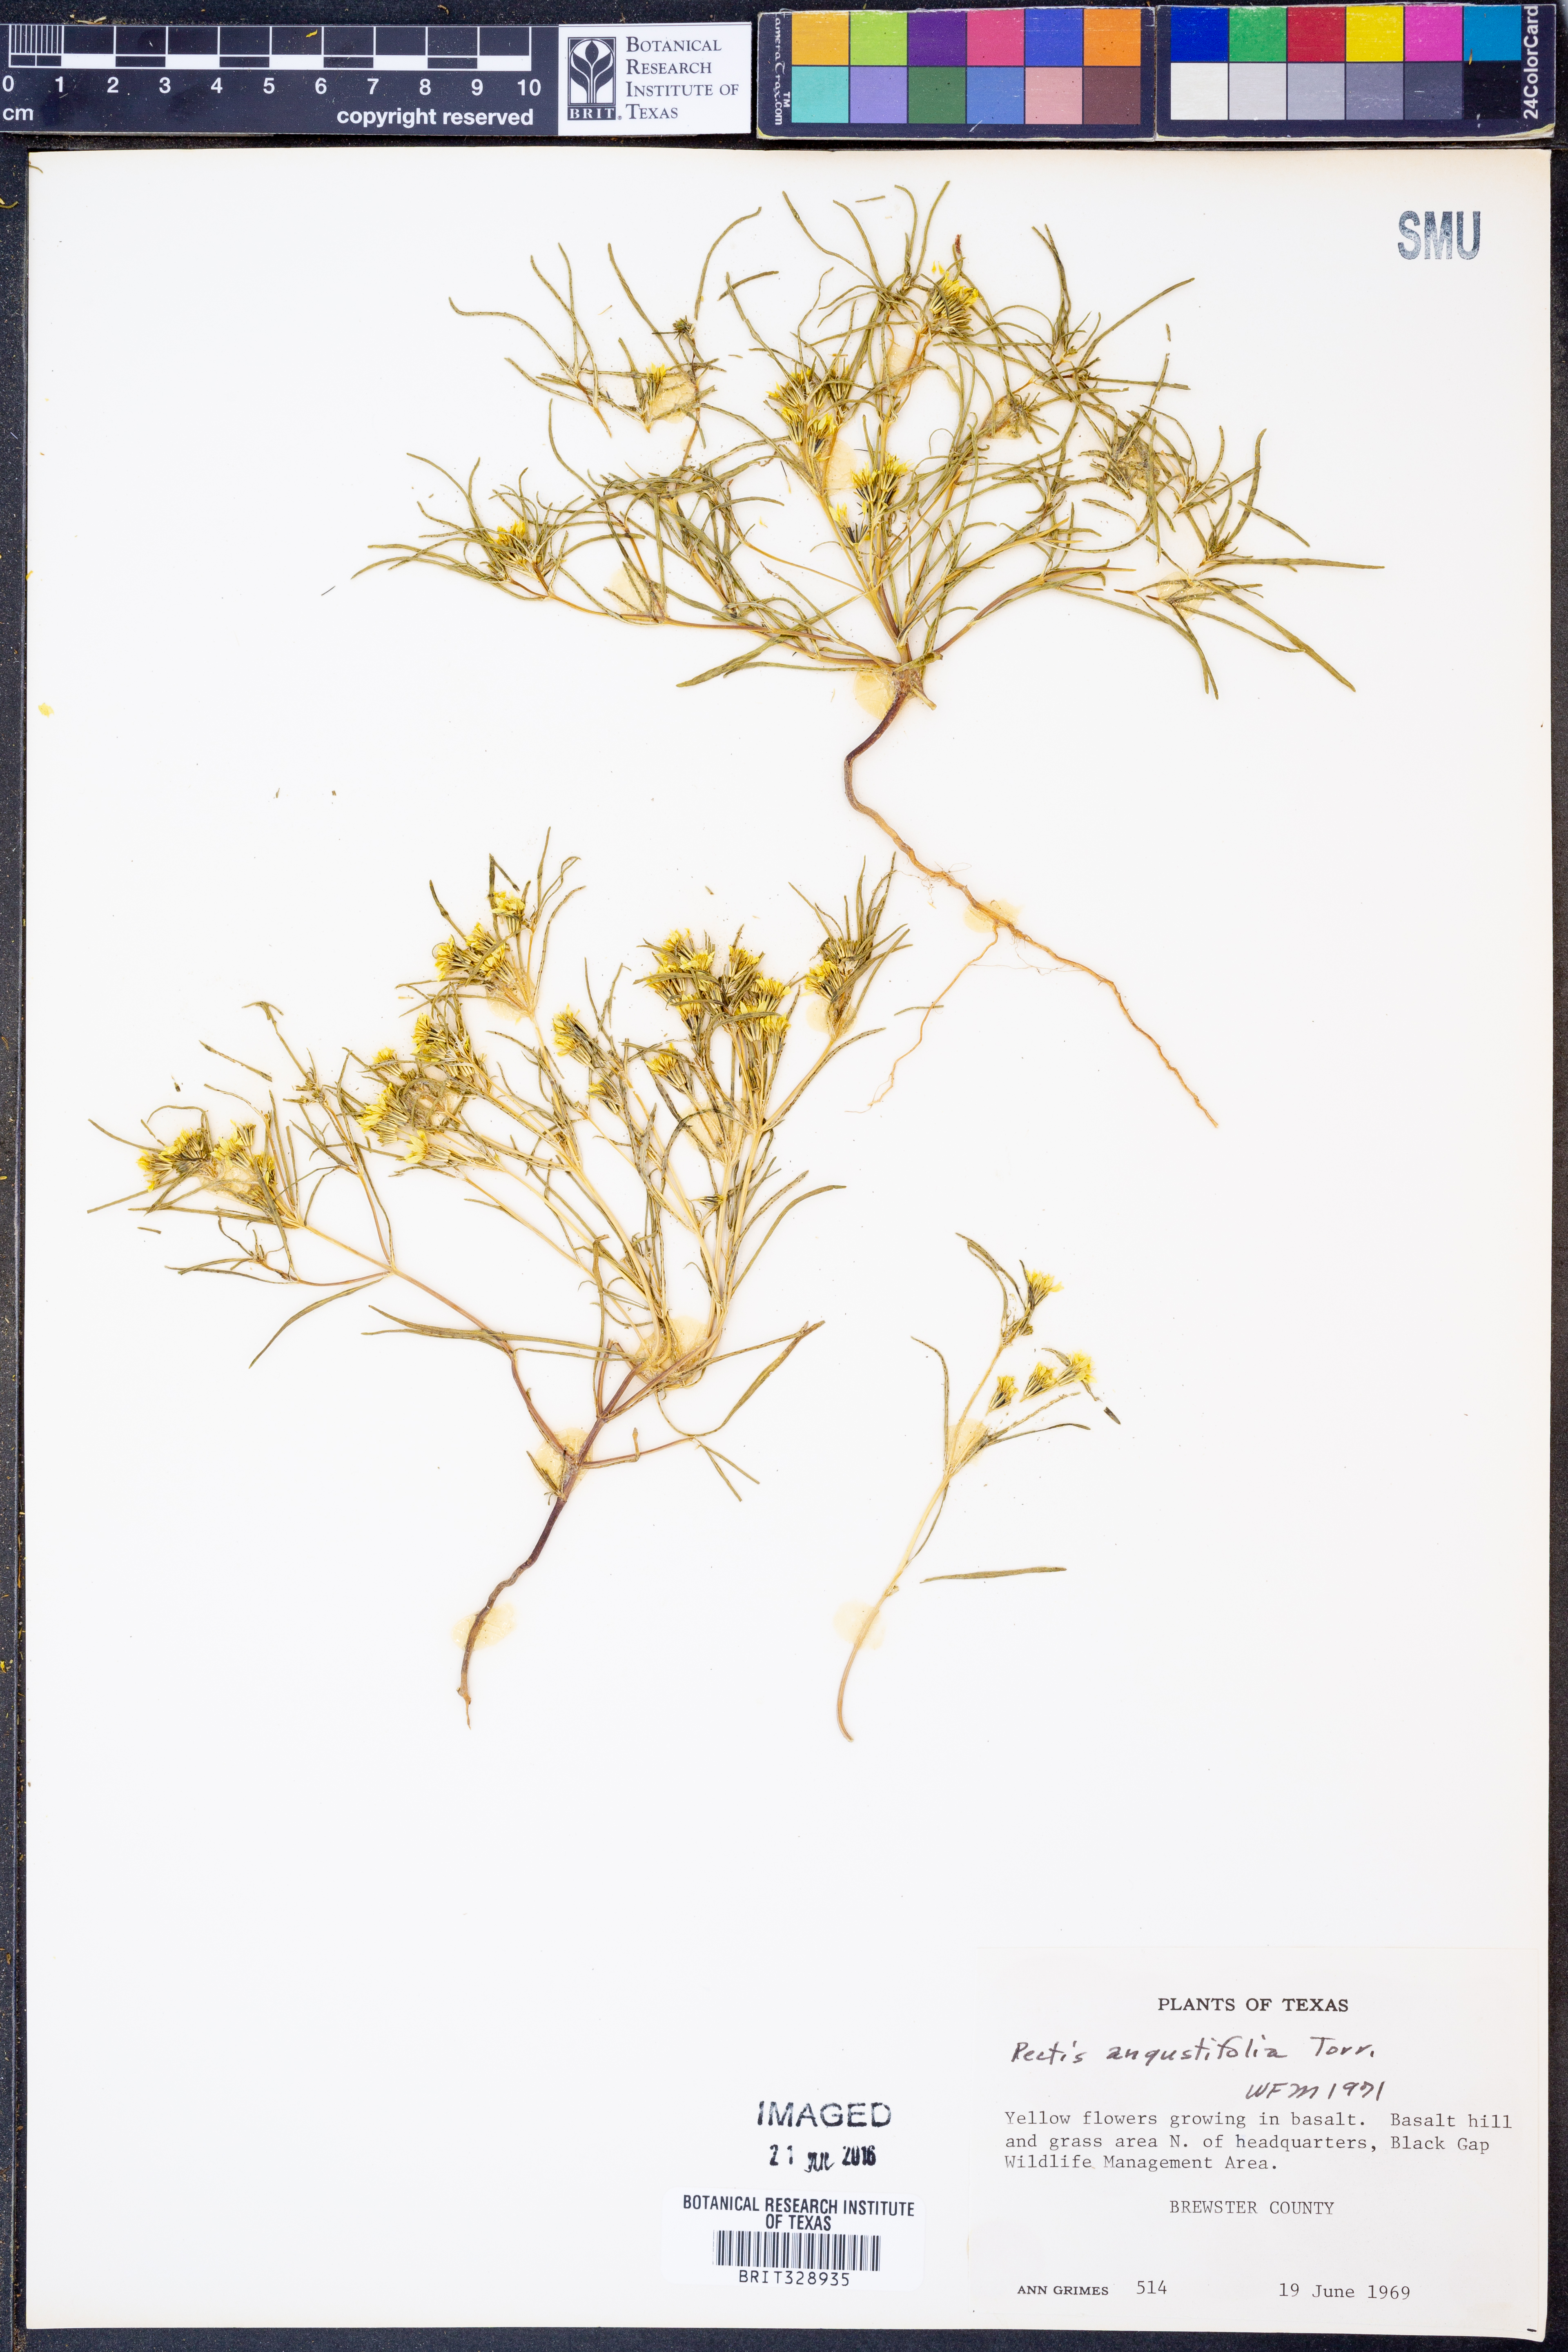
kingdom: Plantae
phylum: Tracheophyta
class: Magnoliopsida
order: Asterales
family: Asteraceae
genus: Pectis
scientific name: Pectis angustifolia
